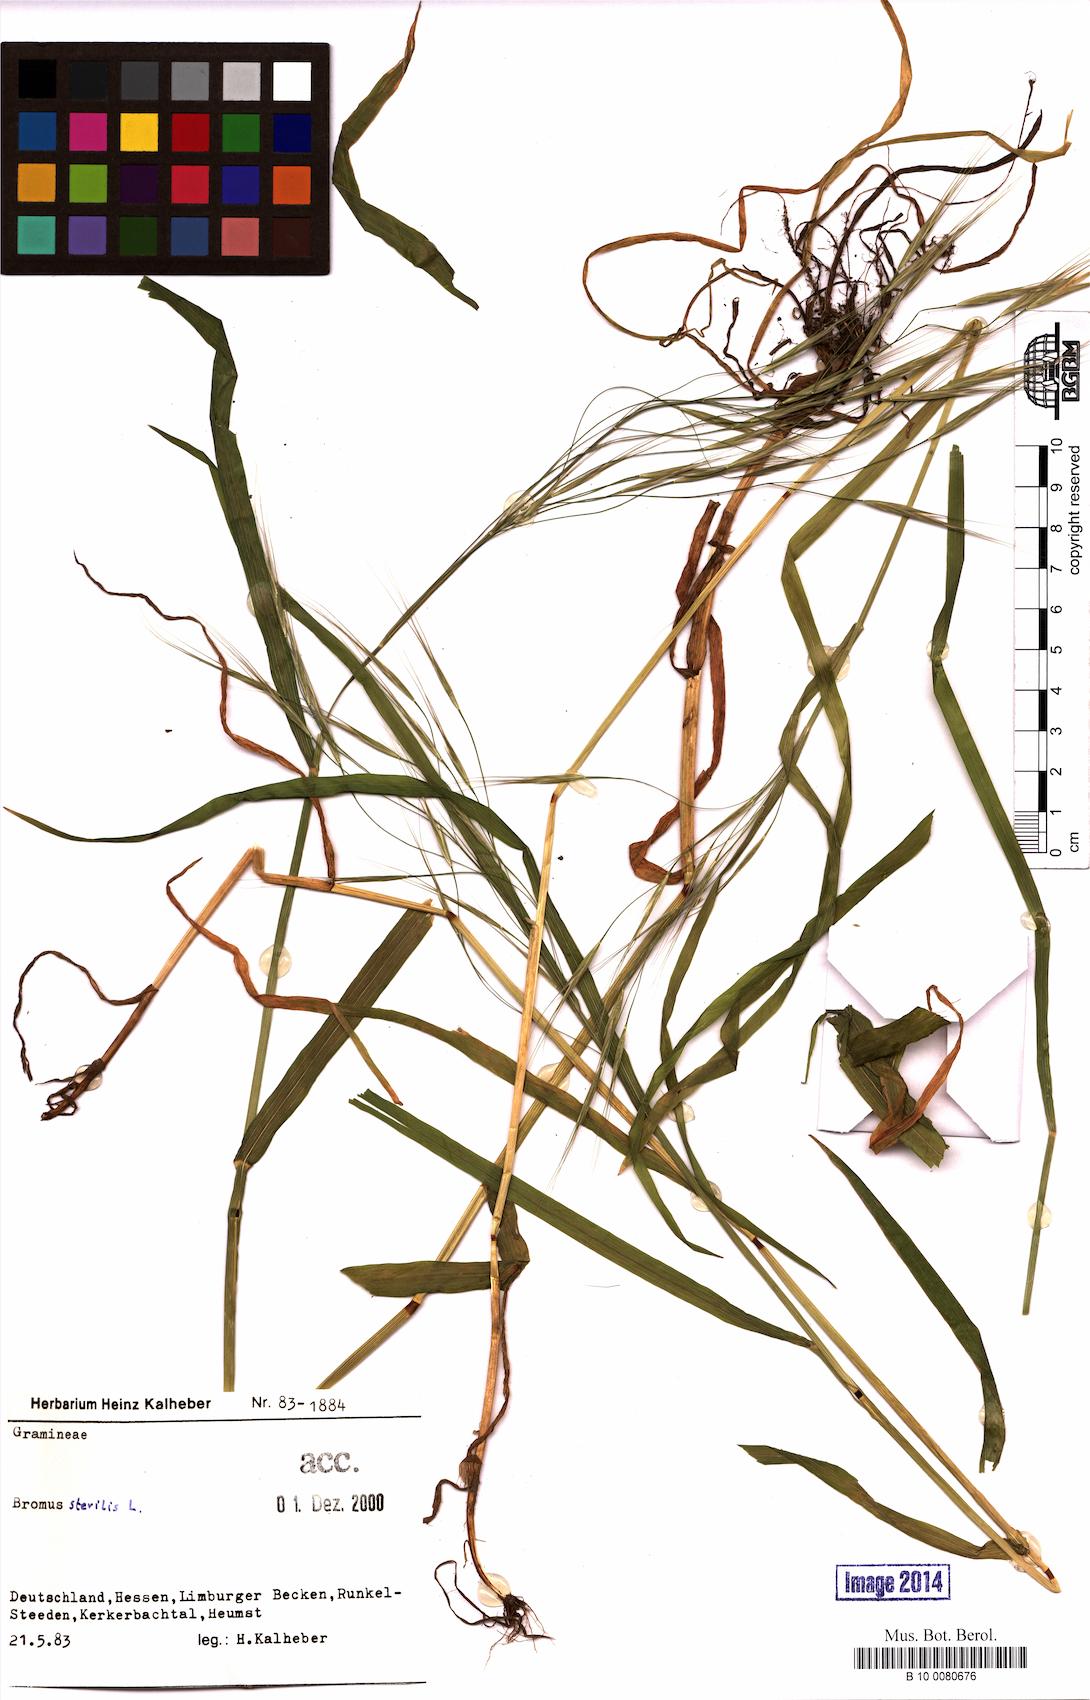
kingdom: Plantae
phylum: Tracheophyta
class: Liliopsida
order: Poales
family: Poaceae
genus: Bromus
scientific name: Bromus sterilis
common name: Poverty brome
